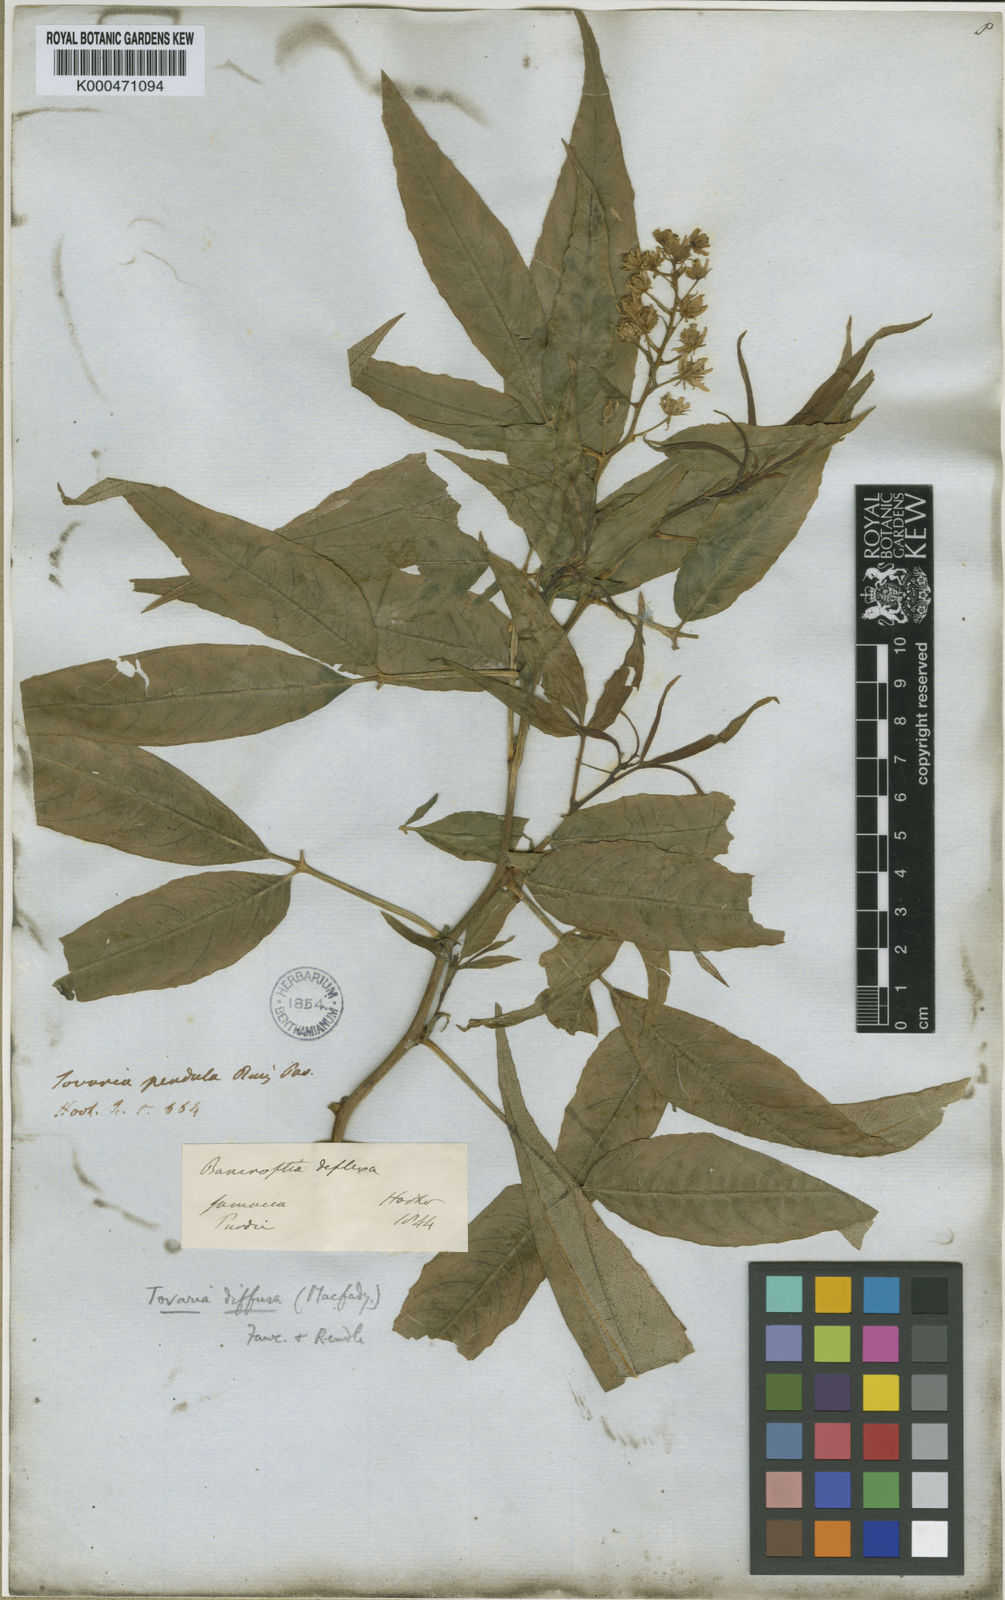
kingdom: Plantae
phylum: Tracheophyta
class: Magnoliopsida
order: Brassicales
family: Tovariaceae
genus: Tovaria
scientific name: Tovaria diffusa
